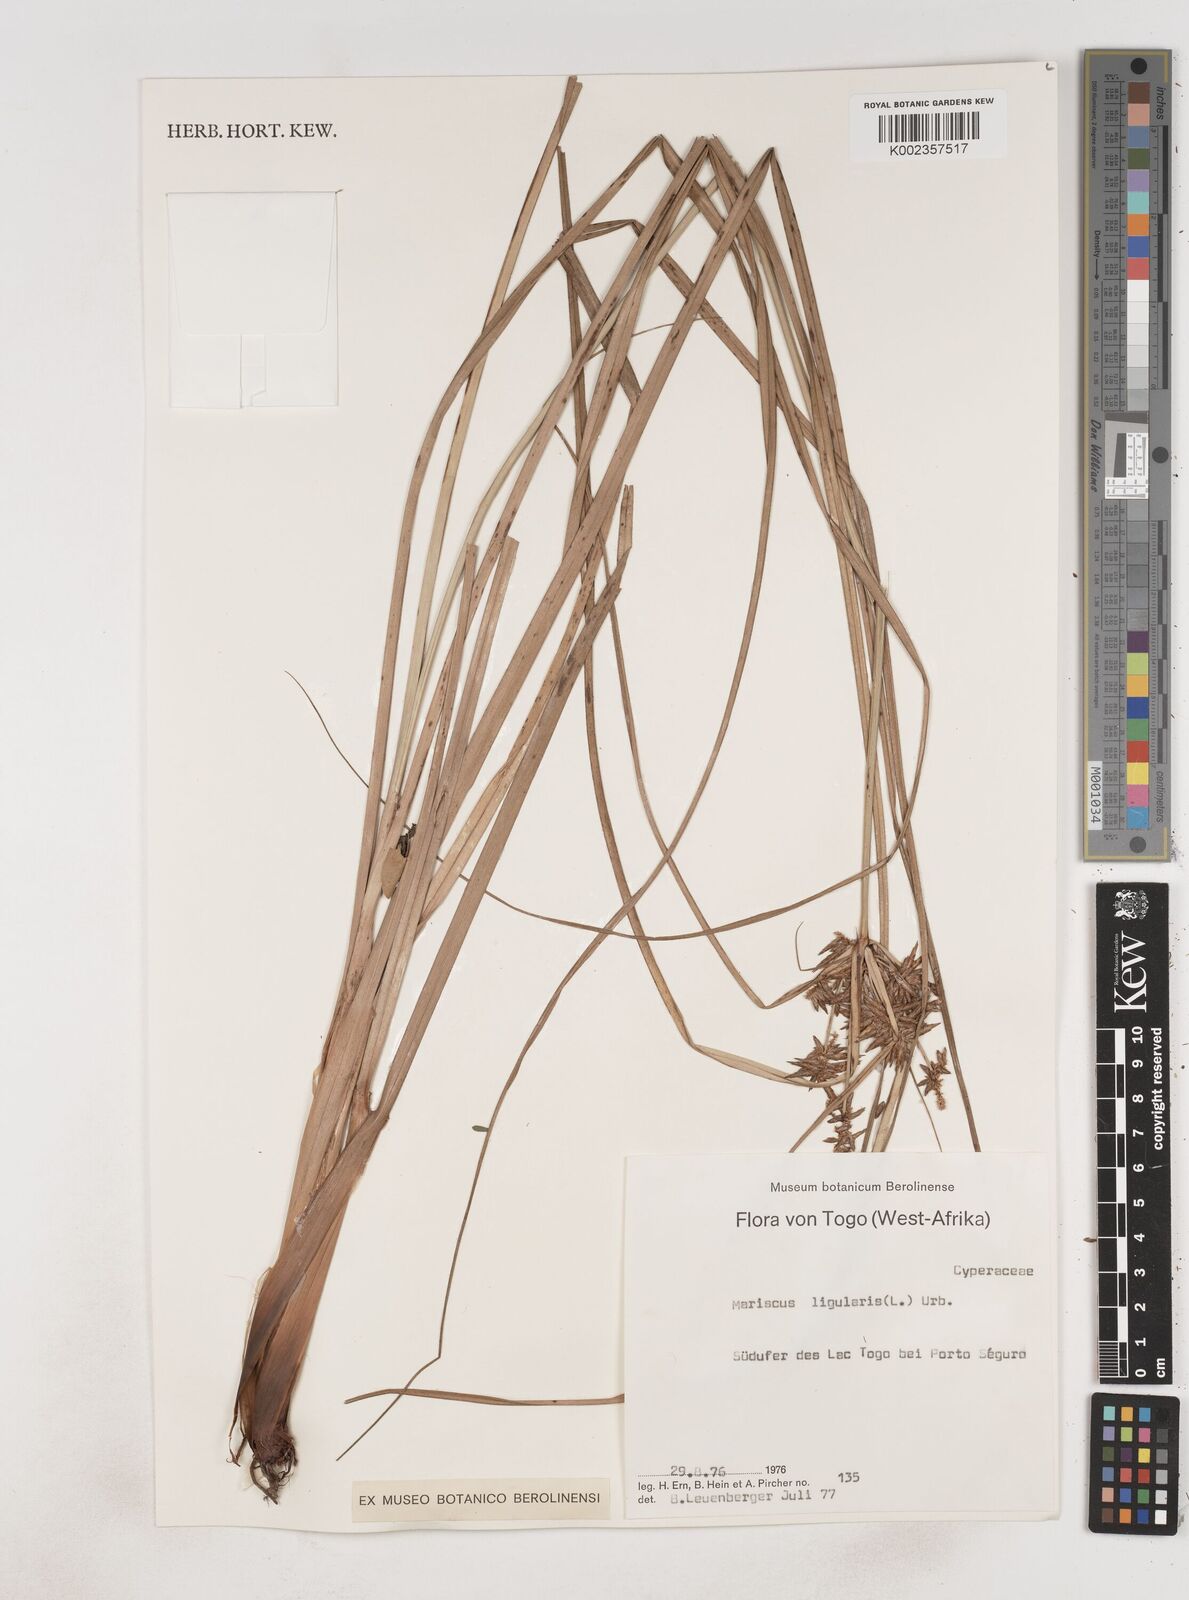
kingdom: Plantae
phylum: Tracheophyta
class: Liliopsida
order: Poales
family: Cyperaceae
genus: Cyperus
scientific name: Cyperus ligularis
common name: Swamp flat sedge
